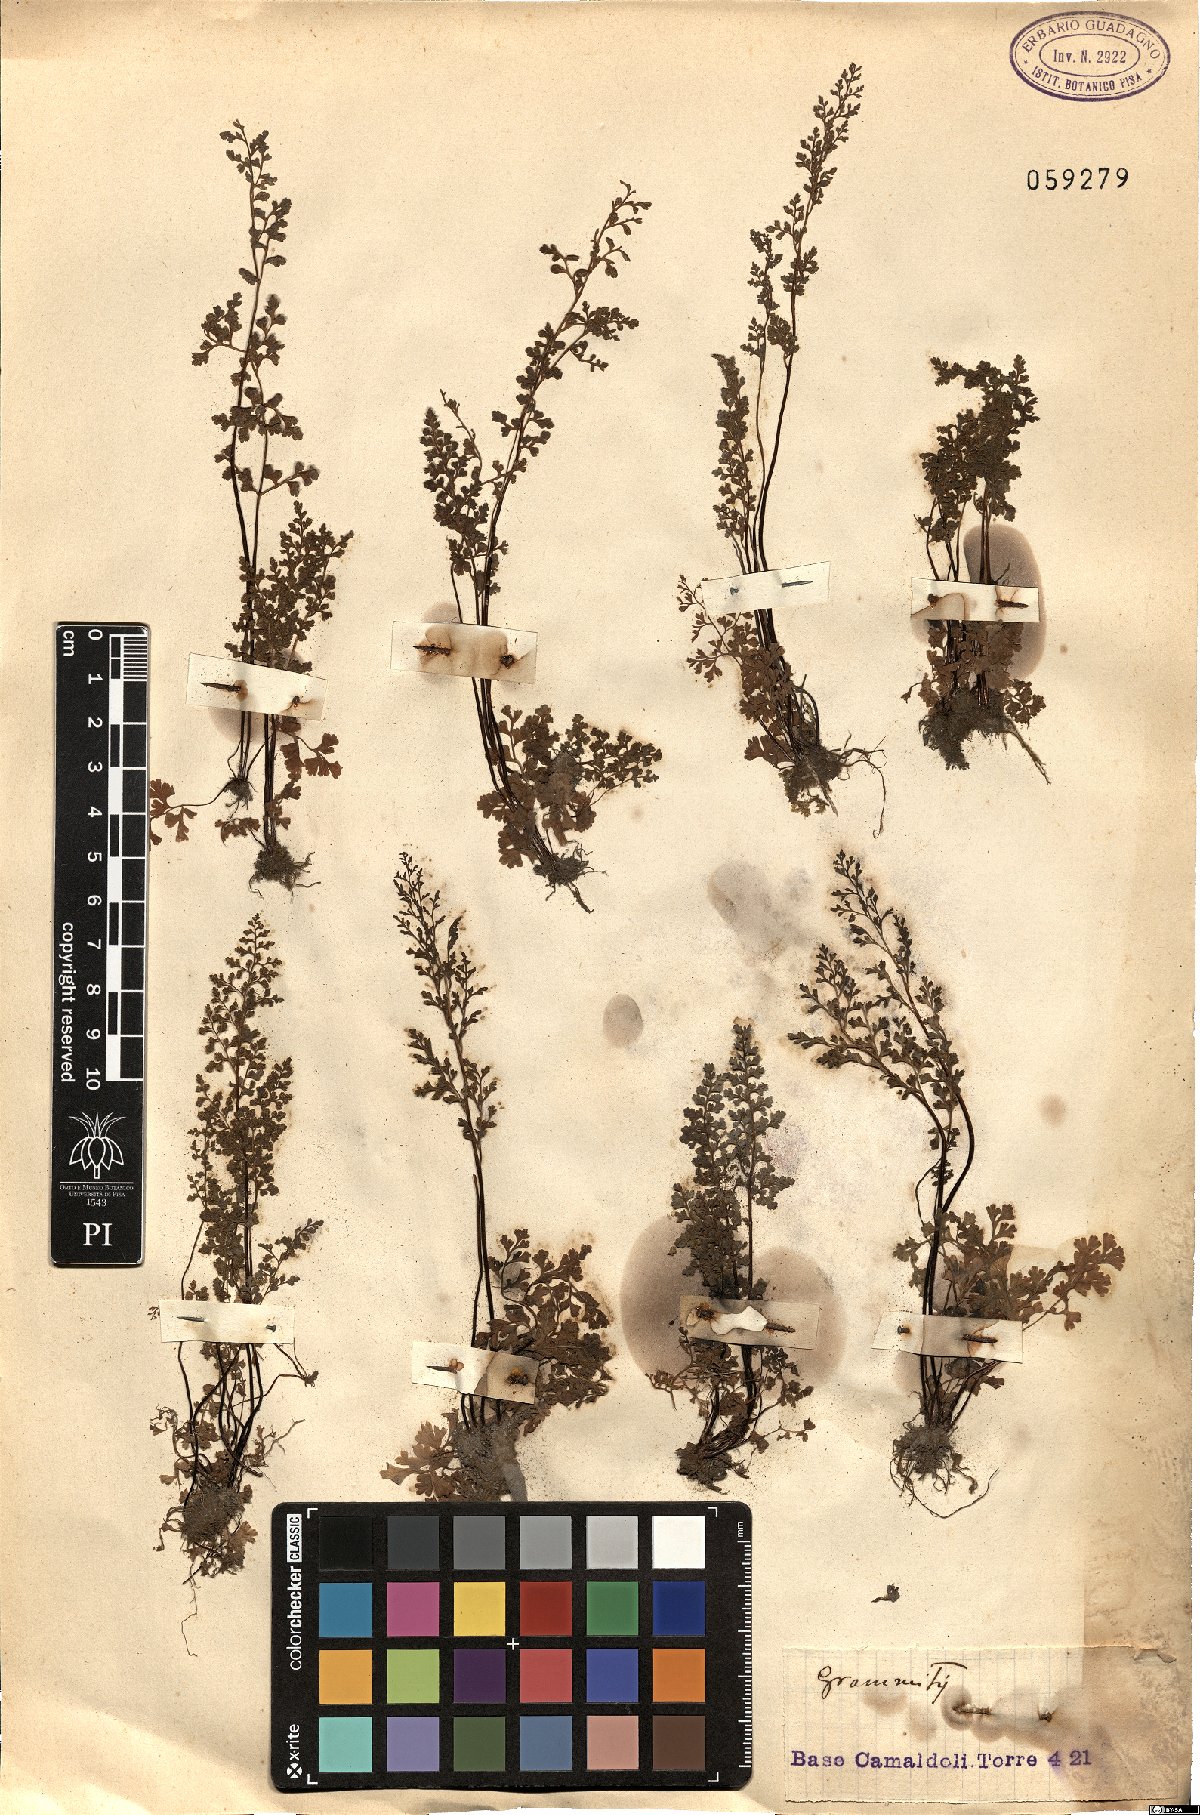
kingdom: Plantae
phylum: Tracheophyta
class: Polypodiopsida
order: Polypodiales
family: Polypodiaceae
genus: Grammitis
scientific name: Grammitis
